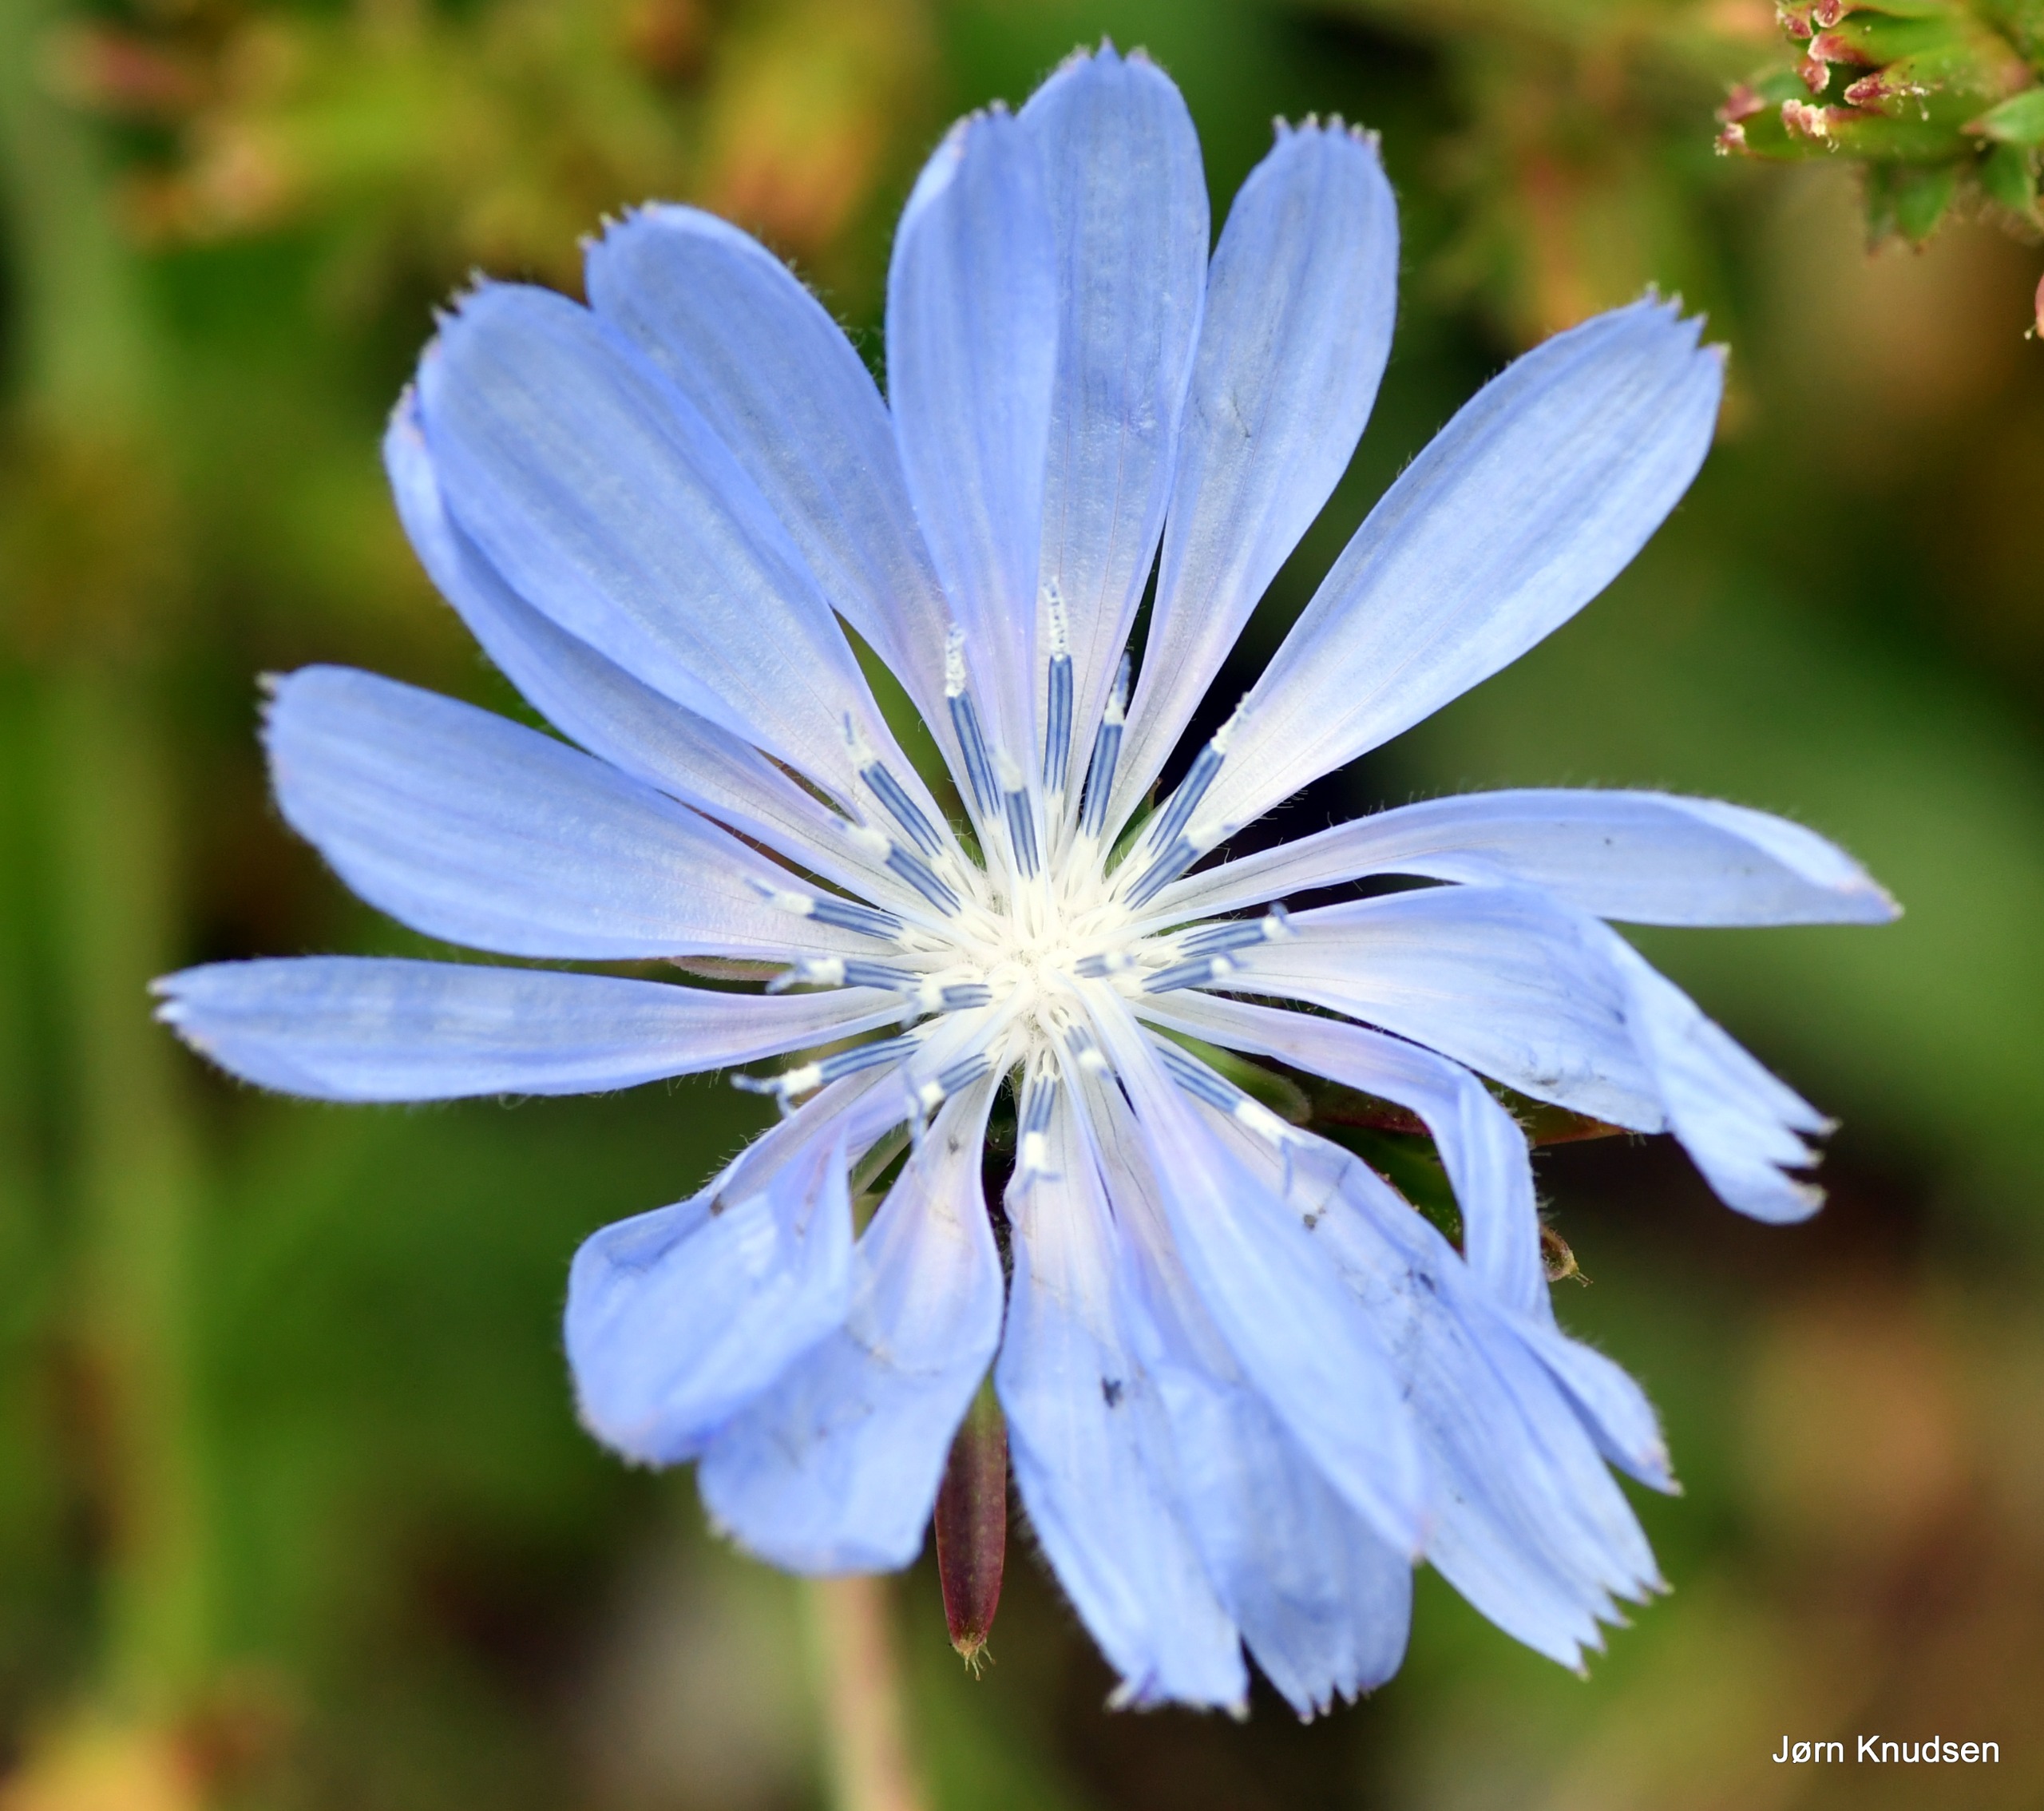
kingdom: Plantae
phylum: Tracheophyta
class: Magnoliopsida
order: Asterales
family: Asteraceae
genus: Cichorium
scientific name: Cichorium intybus
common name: Cikorie
